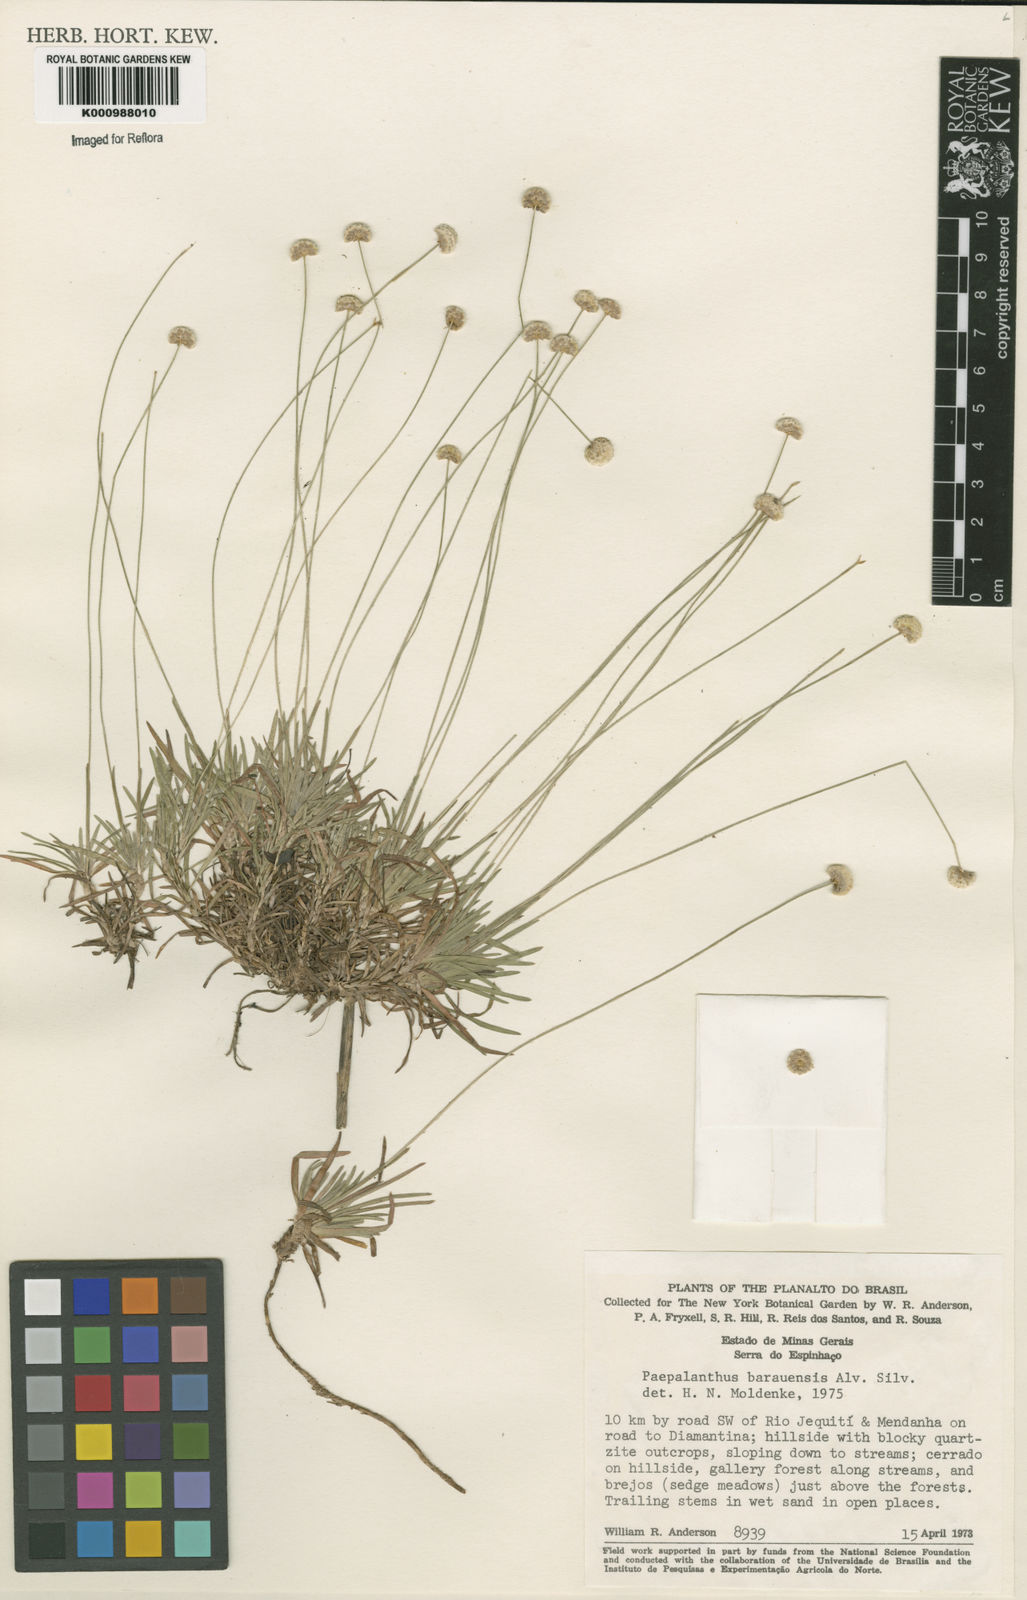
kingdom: Plantae
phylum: Tracheophyta
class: Liliopsida
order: Poales
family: Eriocaulaceae
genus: Paepalanthus
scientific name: Paepalanthus baraunensis
